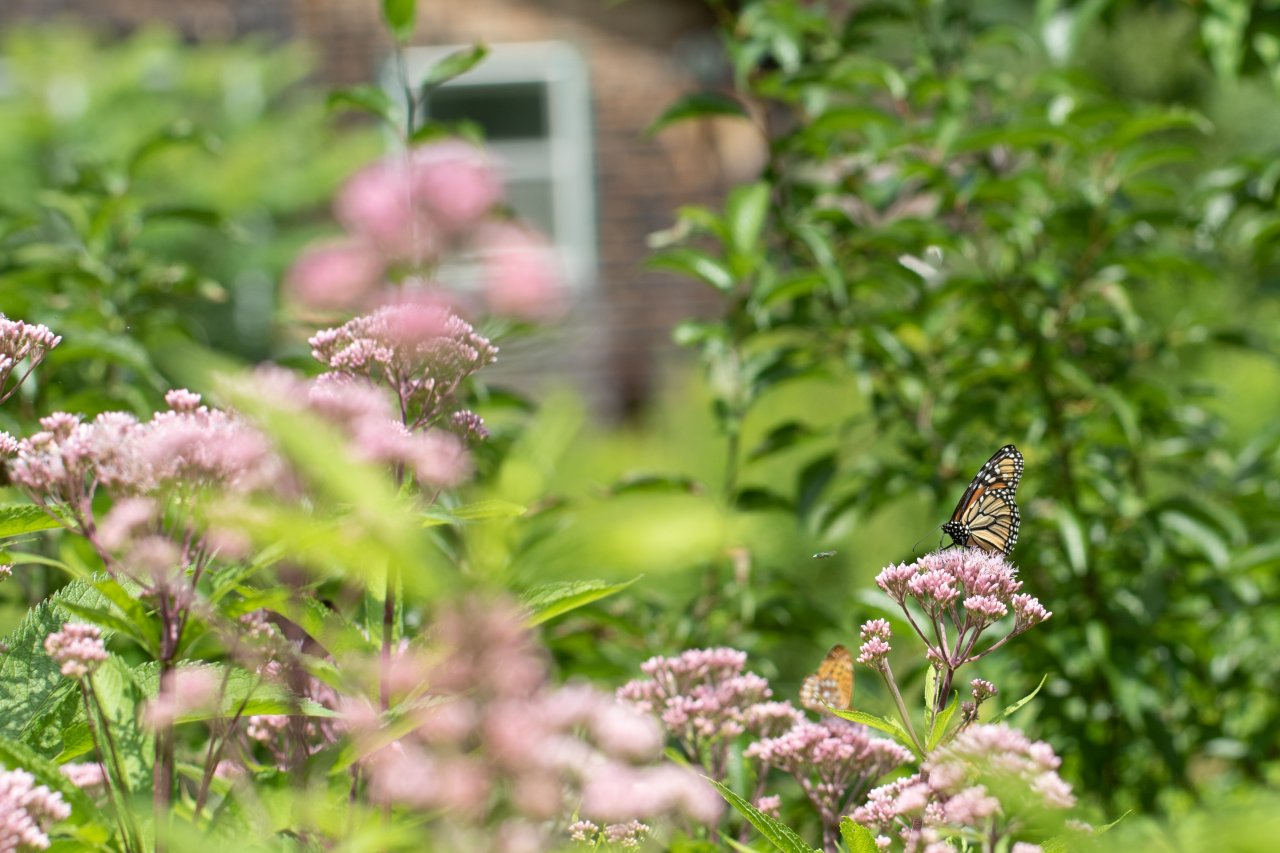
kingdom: Animalia
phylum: Arthropoda
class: Insecta
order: Lepidoptera
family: Nymphalidae
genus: Danaus
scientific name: Danaus plexippus
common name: Monarch
